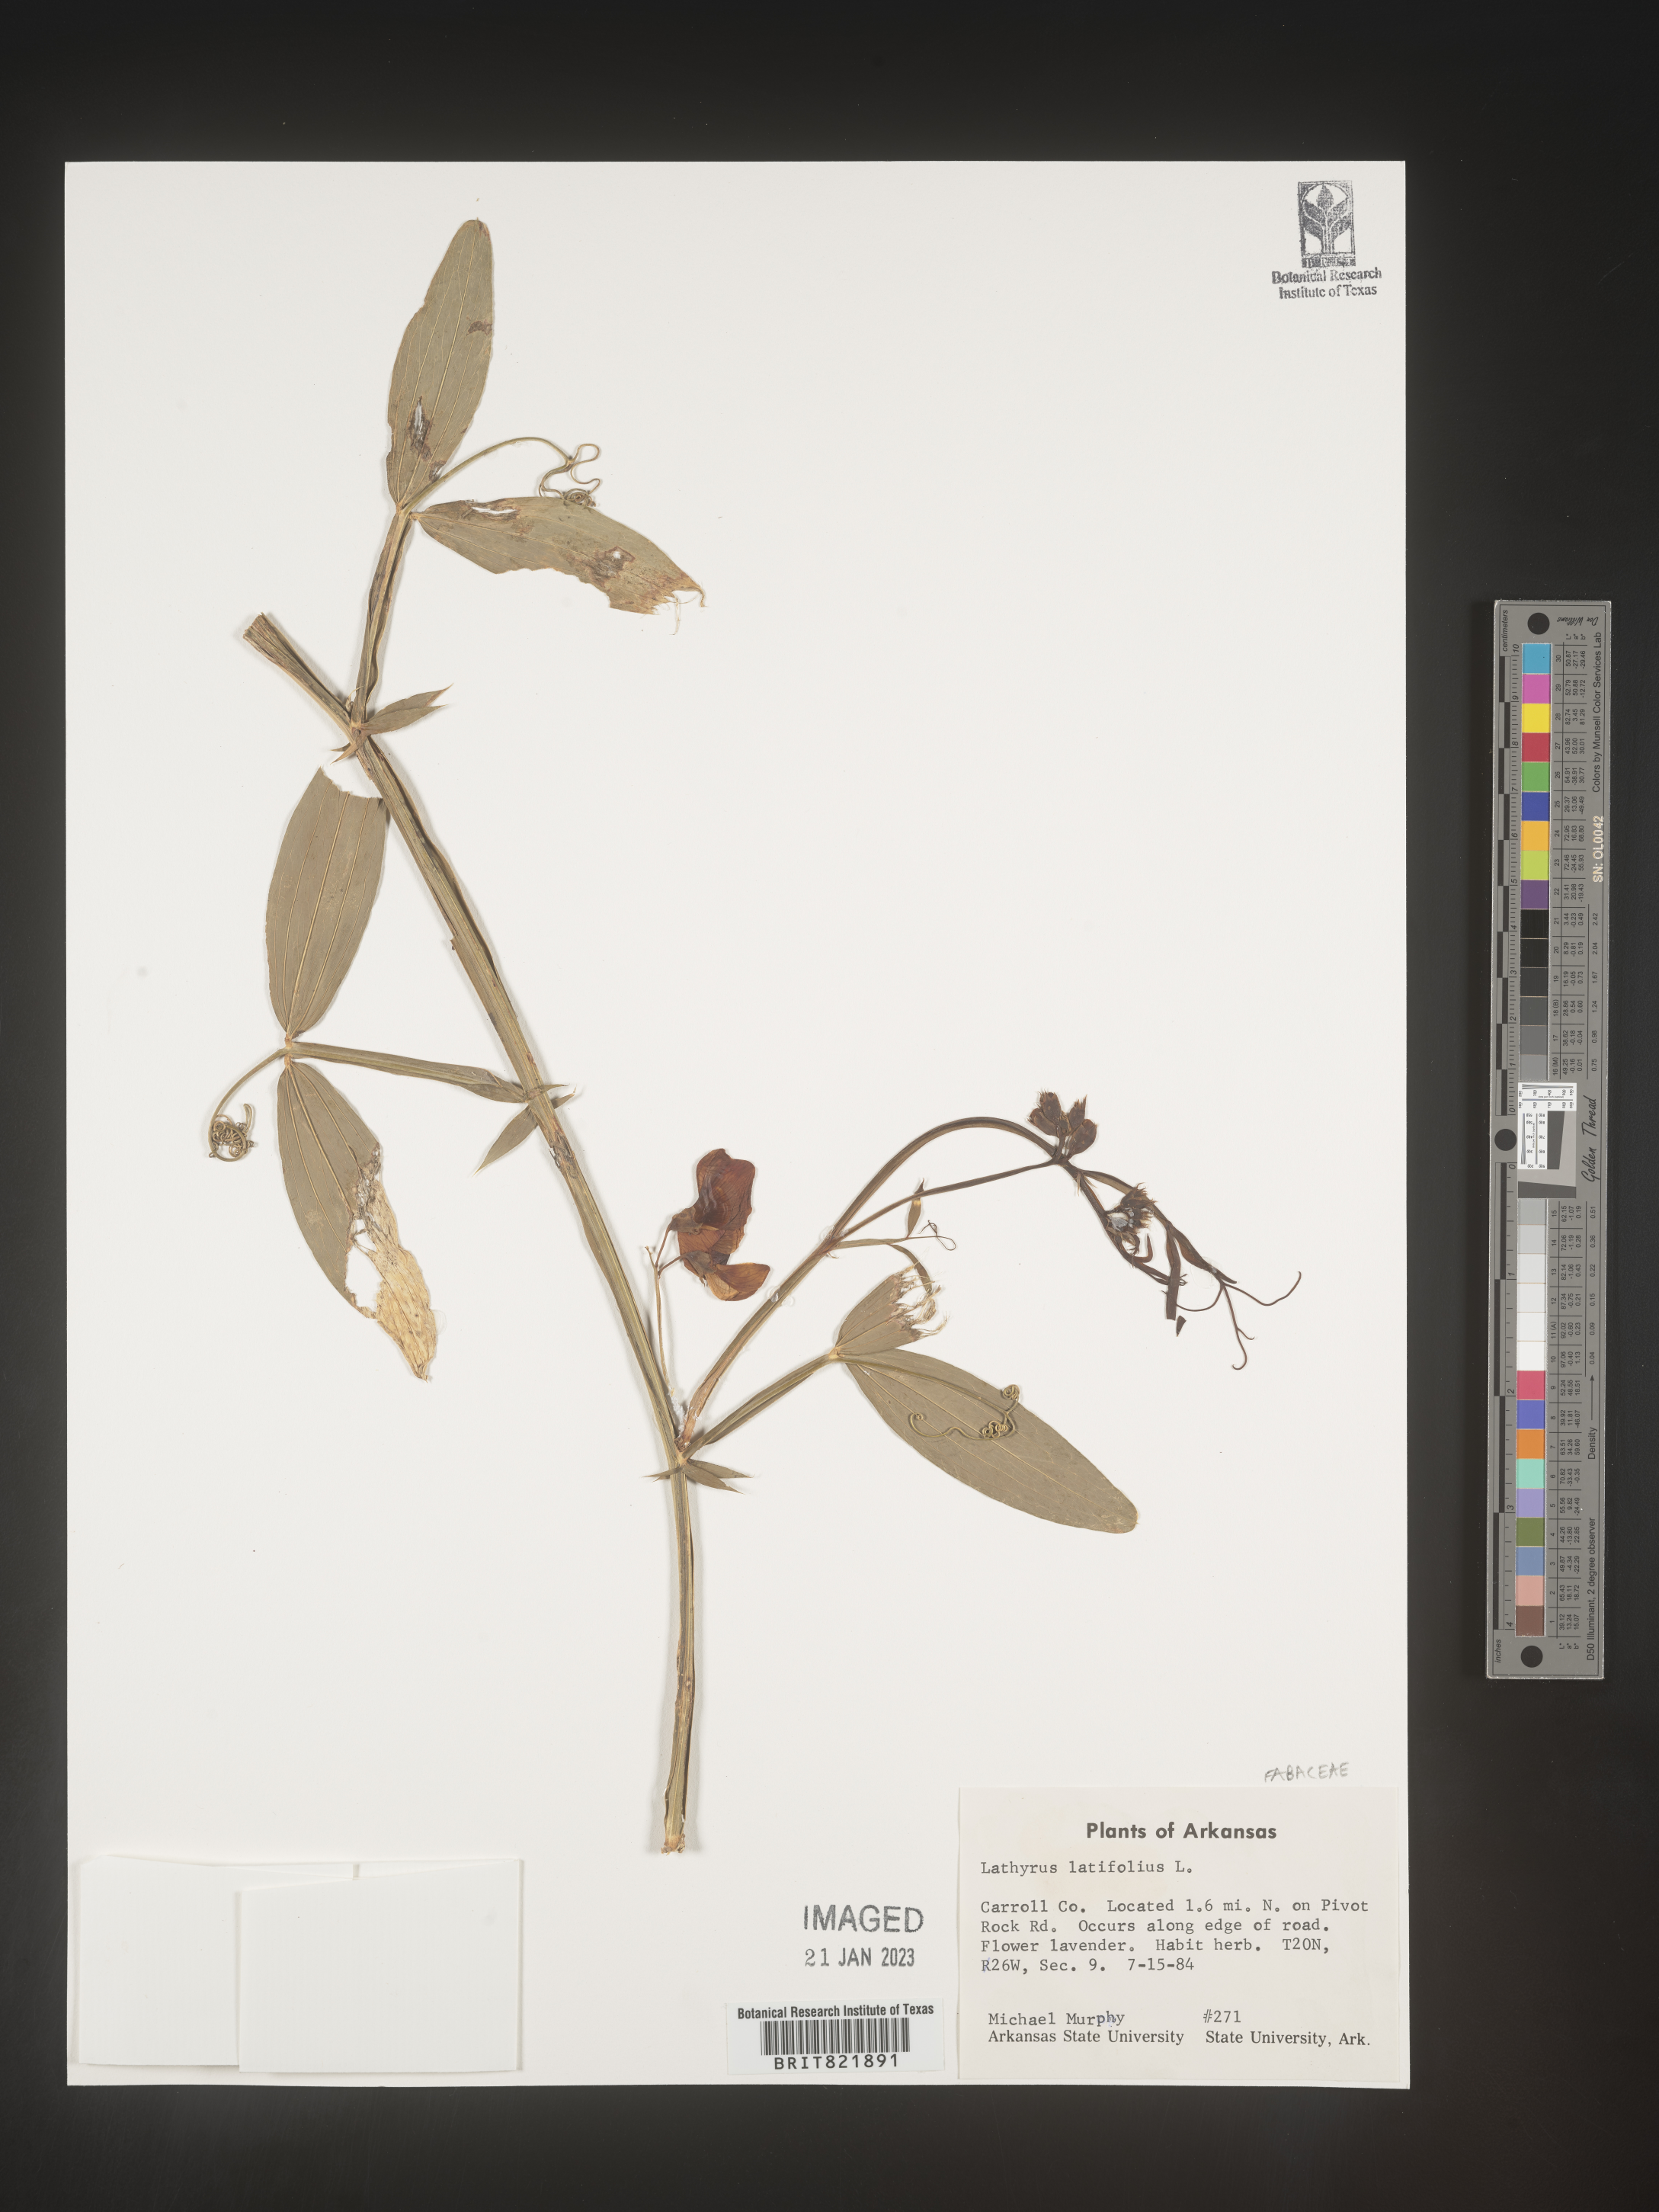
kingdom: Plantae
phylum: Tracheophyta
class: Magnoliopsida
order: Fabales
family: Fabaceae
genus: Lathyrus
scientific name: Lathyrus latifolius
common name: Perennial pea
